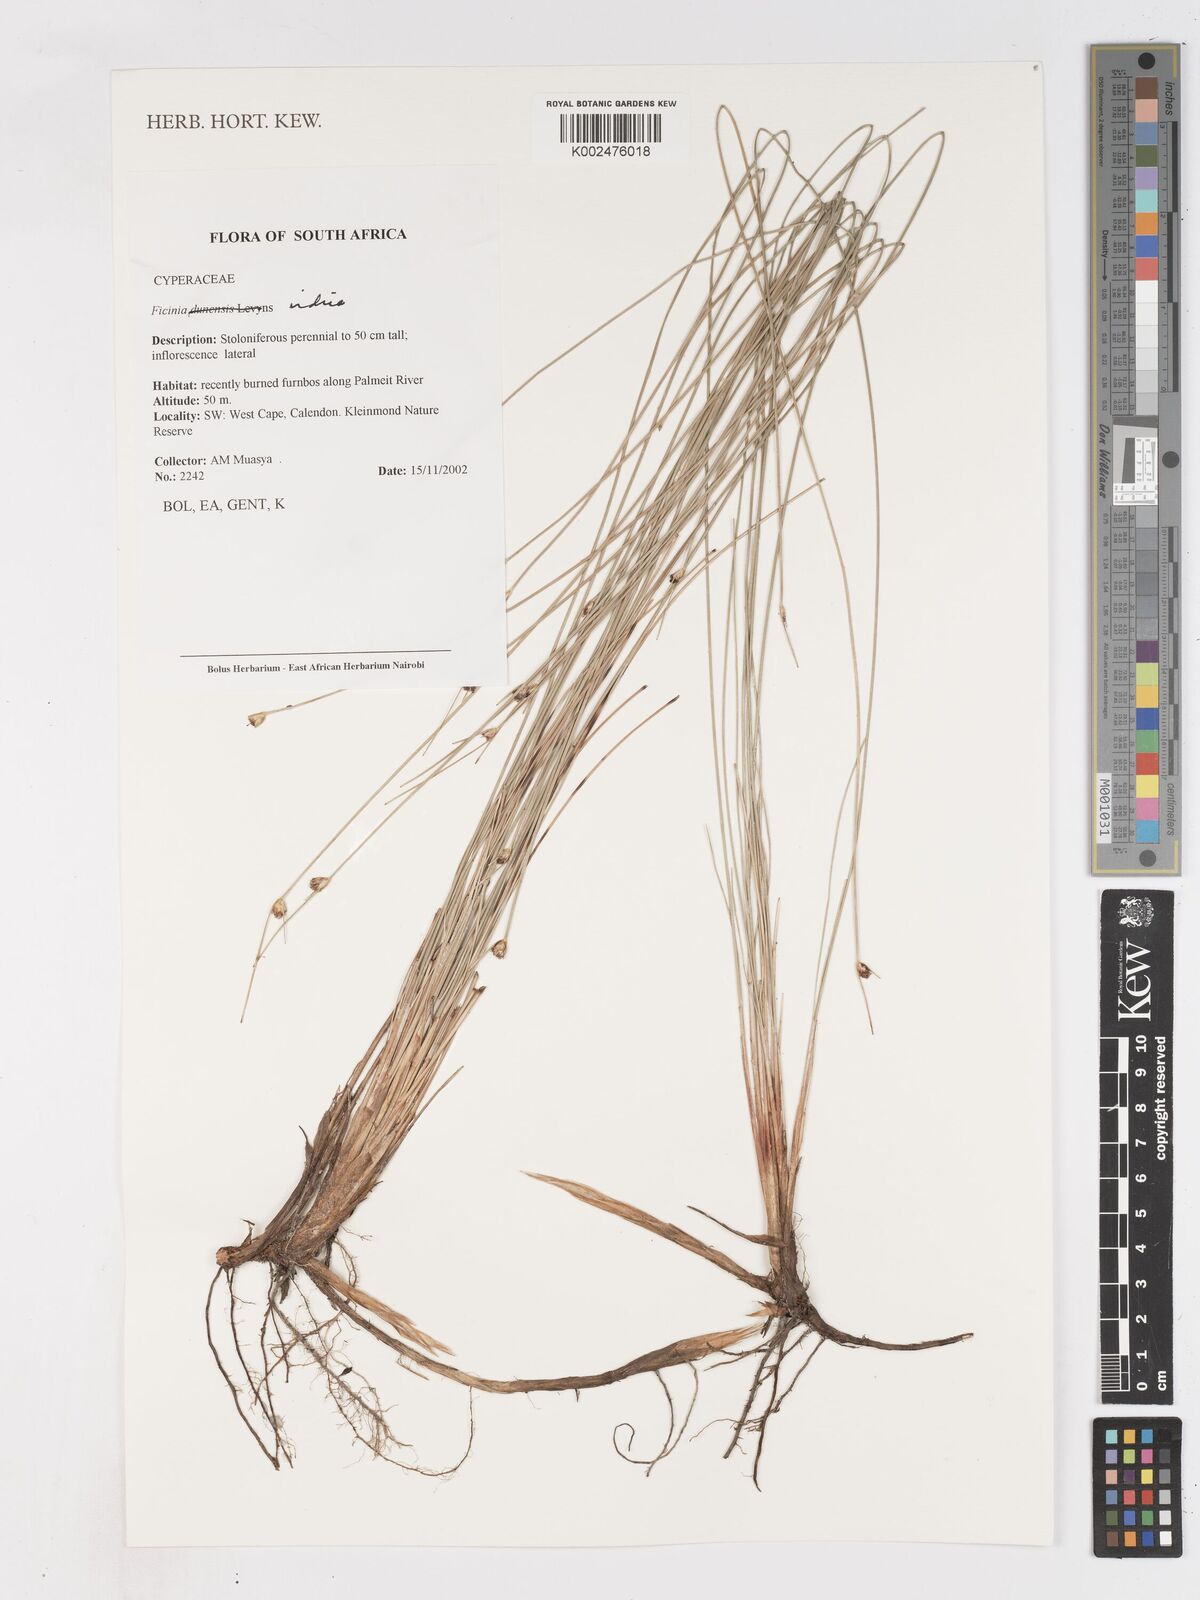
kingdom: Plantae
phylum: Tracheophyta
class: Liliopsida
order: Poales
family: Cyperaceae
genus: Ficinia
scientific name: Ficinia indica
